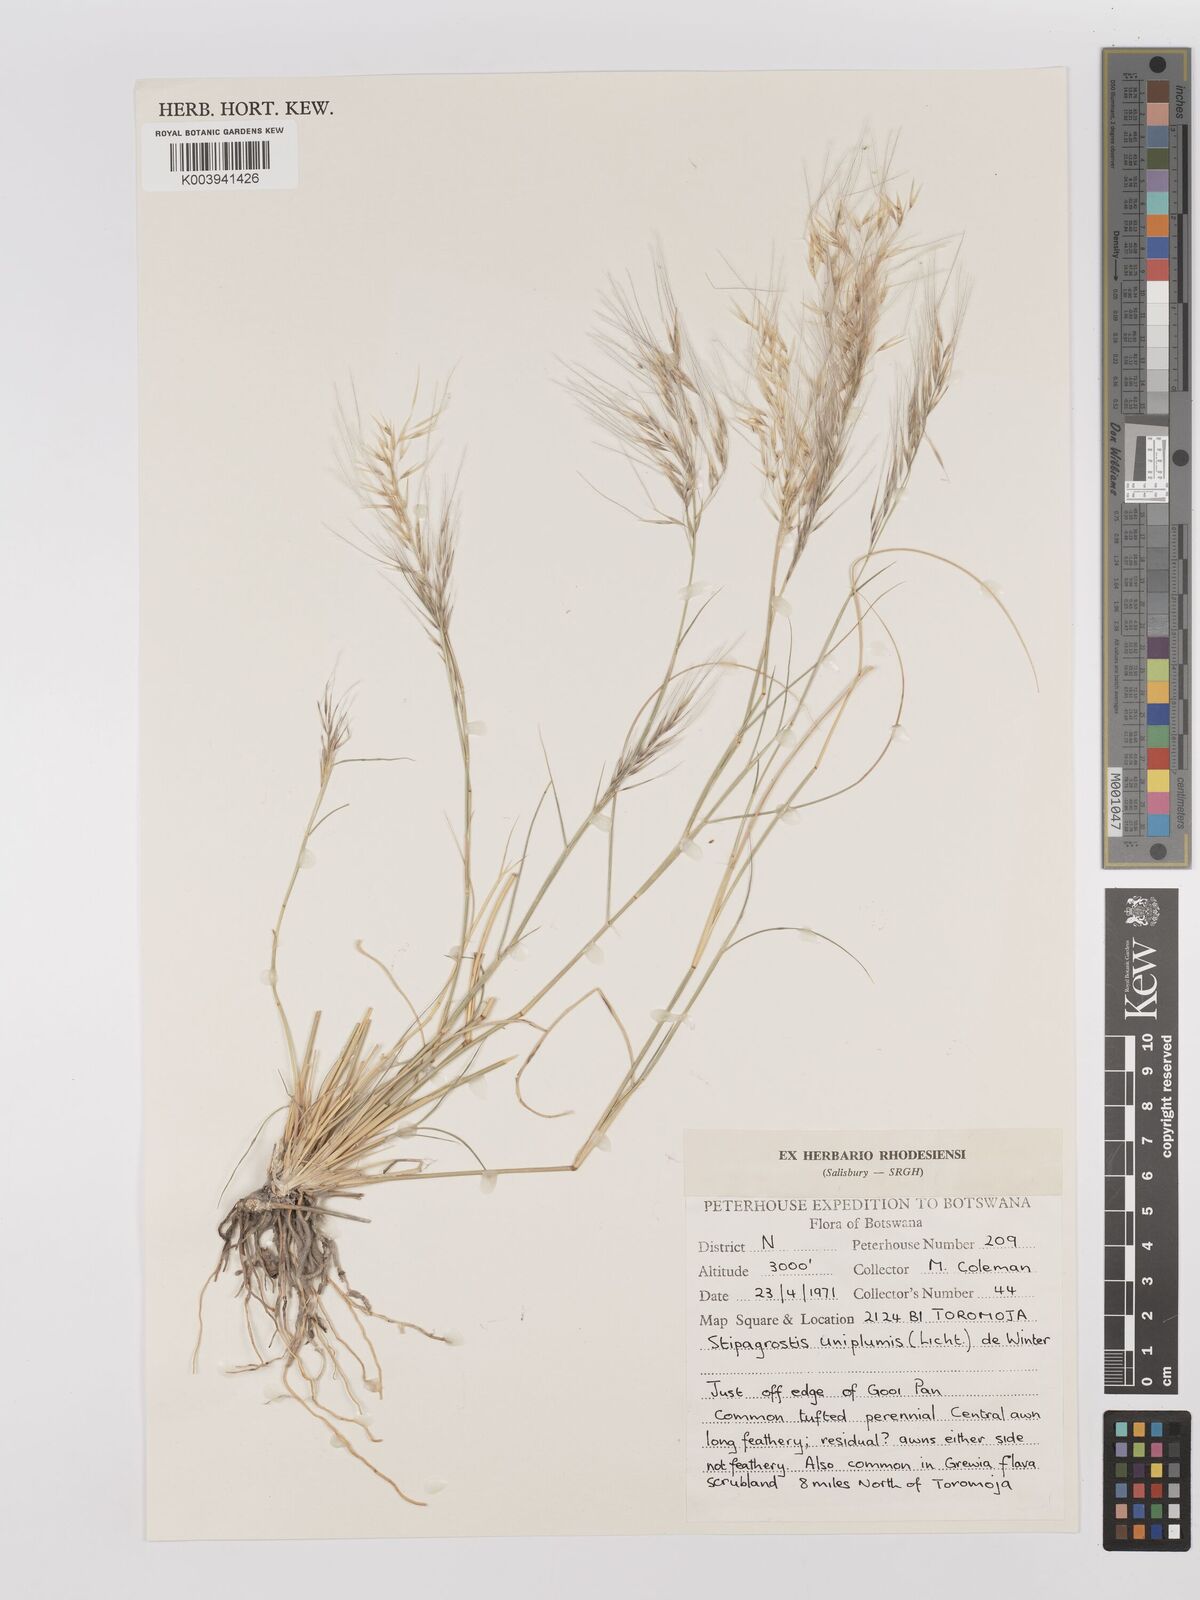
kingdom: Plantae
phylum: Tracheophyta
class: Liliopsida
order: Poales
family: Poaceae
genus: Stipagrostis
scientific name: Stipagrostis uniplumis
